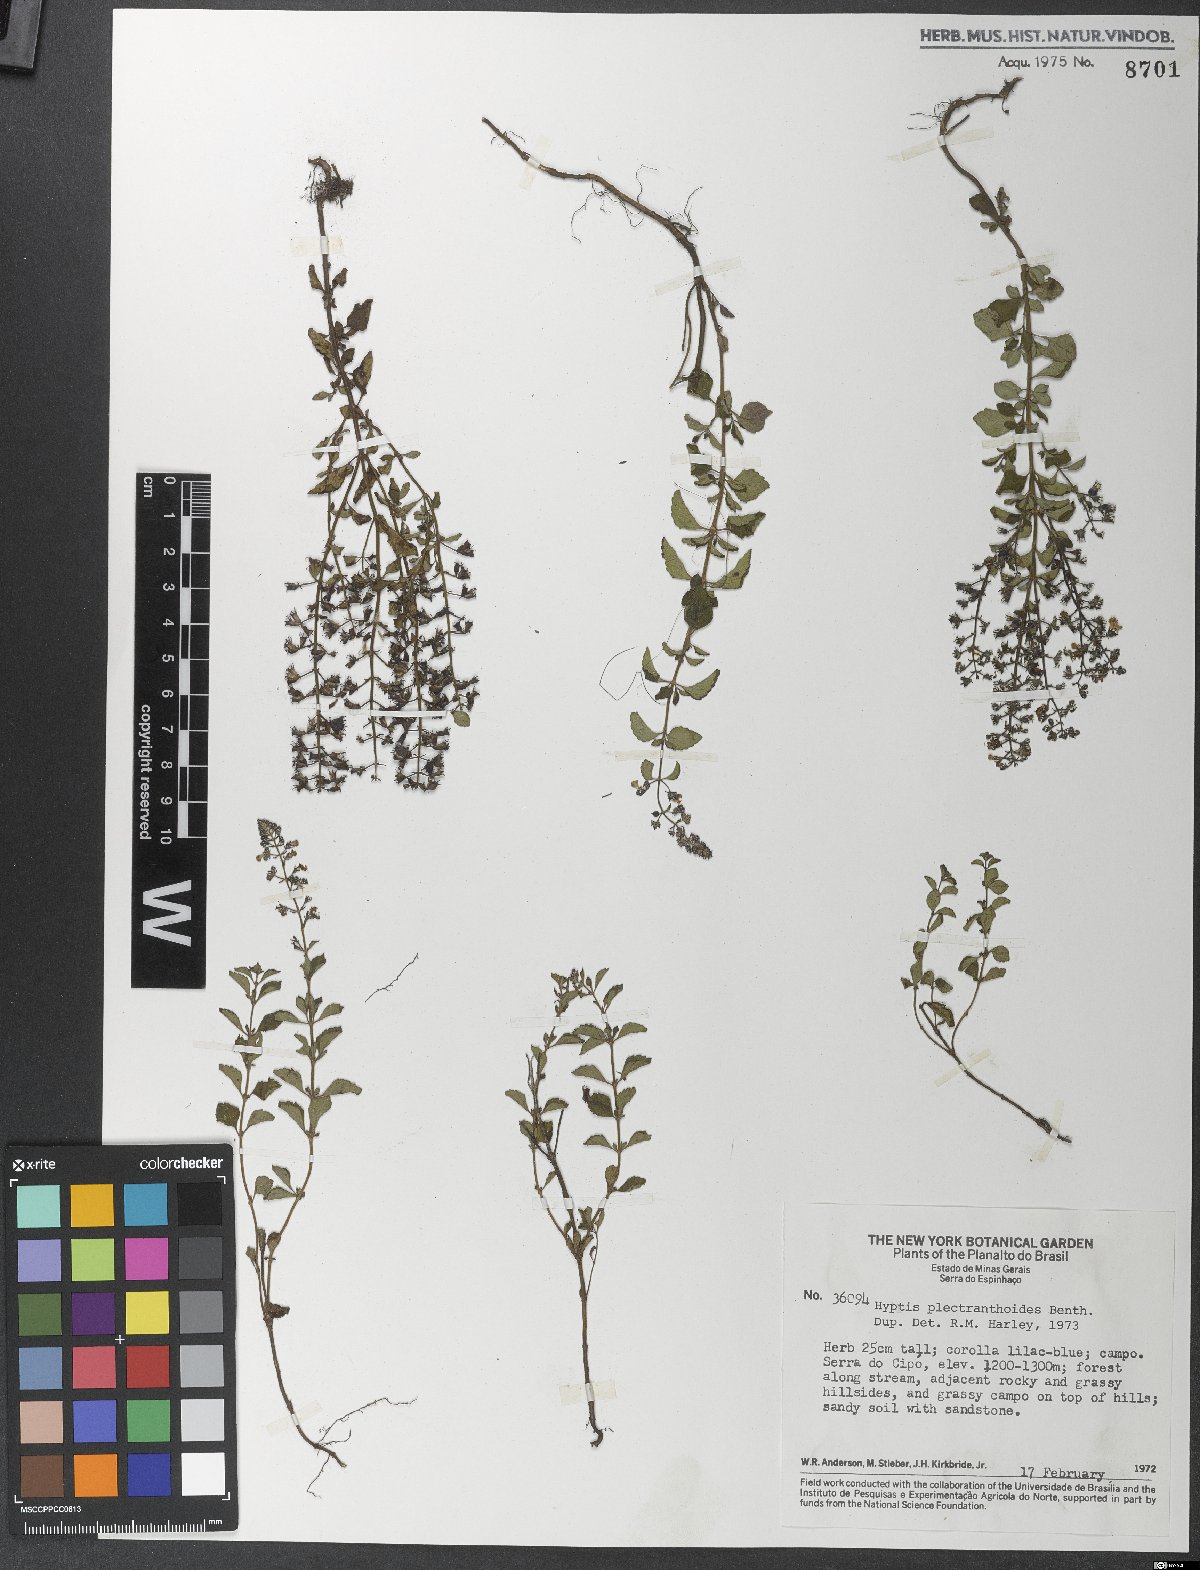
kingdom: Plantae
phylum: Tracheophyta
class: Magnoliopsida
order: Lamiales
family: Lamiaceae
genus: Cantinoa
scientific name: Cantinoa plectranthoides
